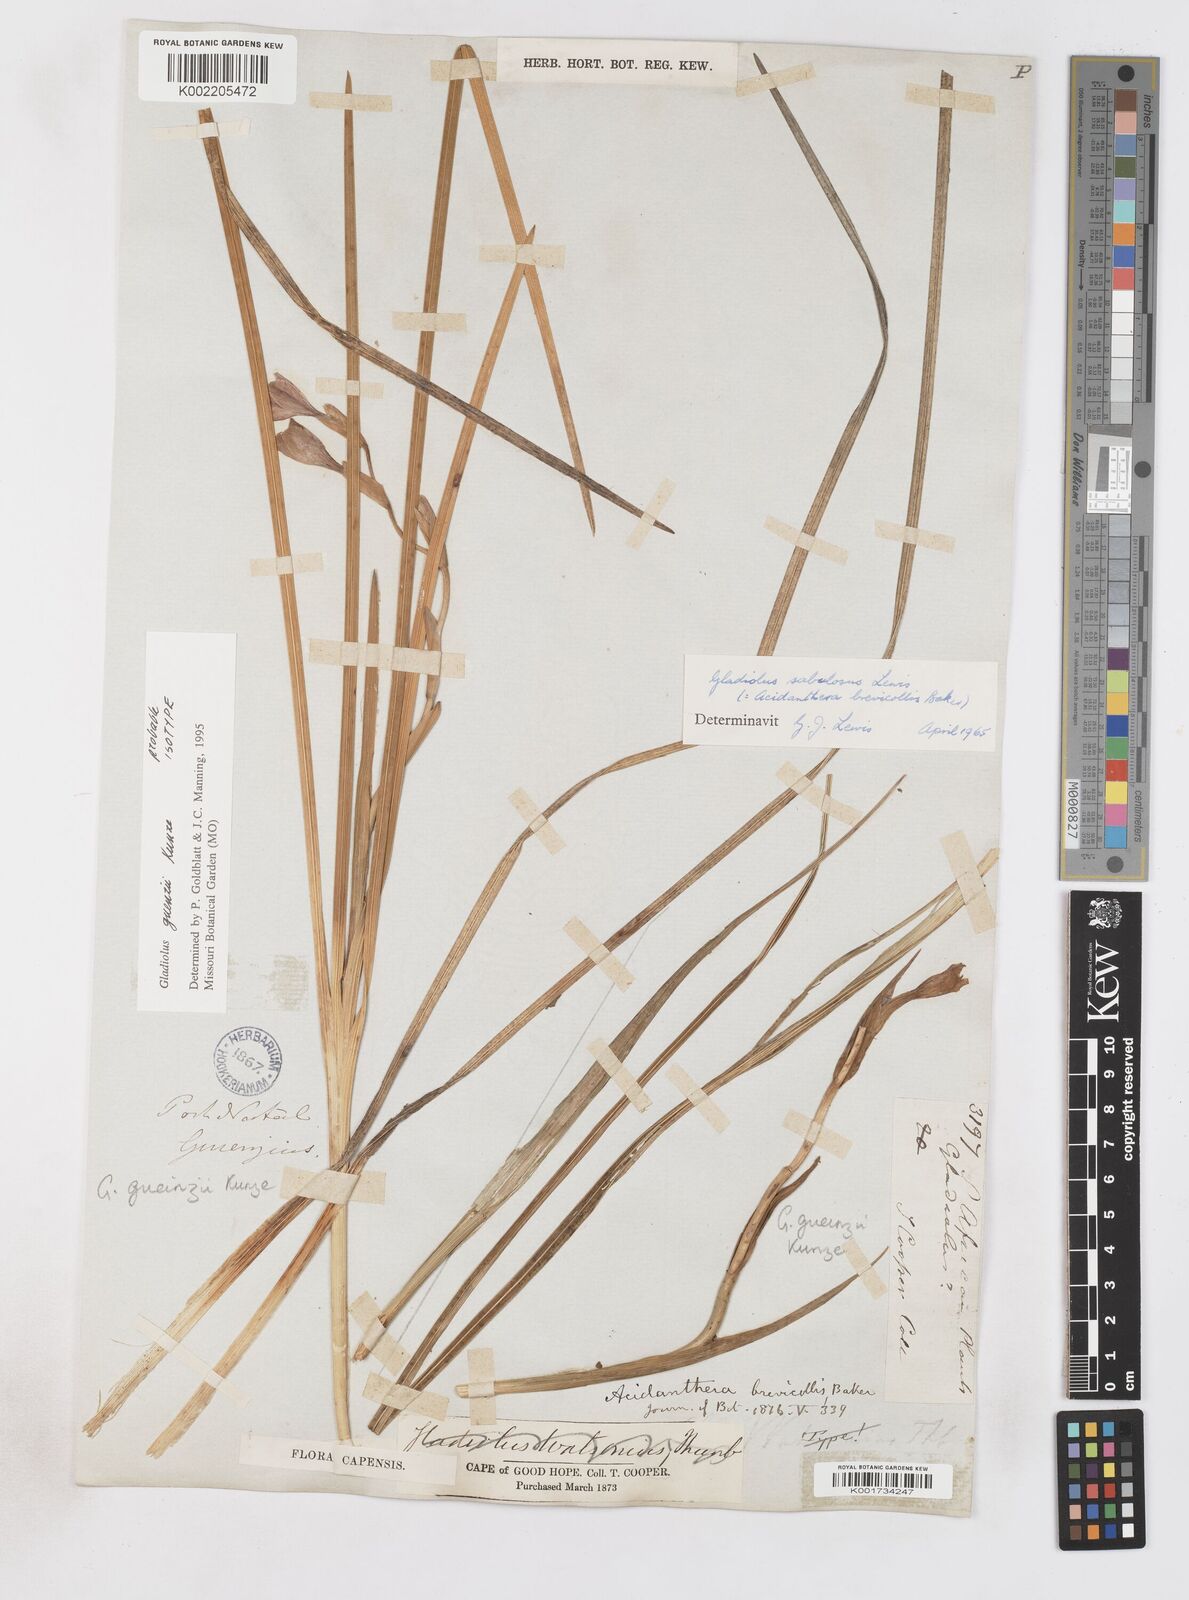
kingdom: Plantae
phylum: Tracheophyta
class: Liliopsida
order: Asparagales
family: Iridaceae
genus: Gladiolus
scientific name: Gladiolus gueinzii
